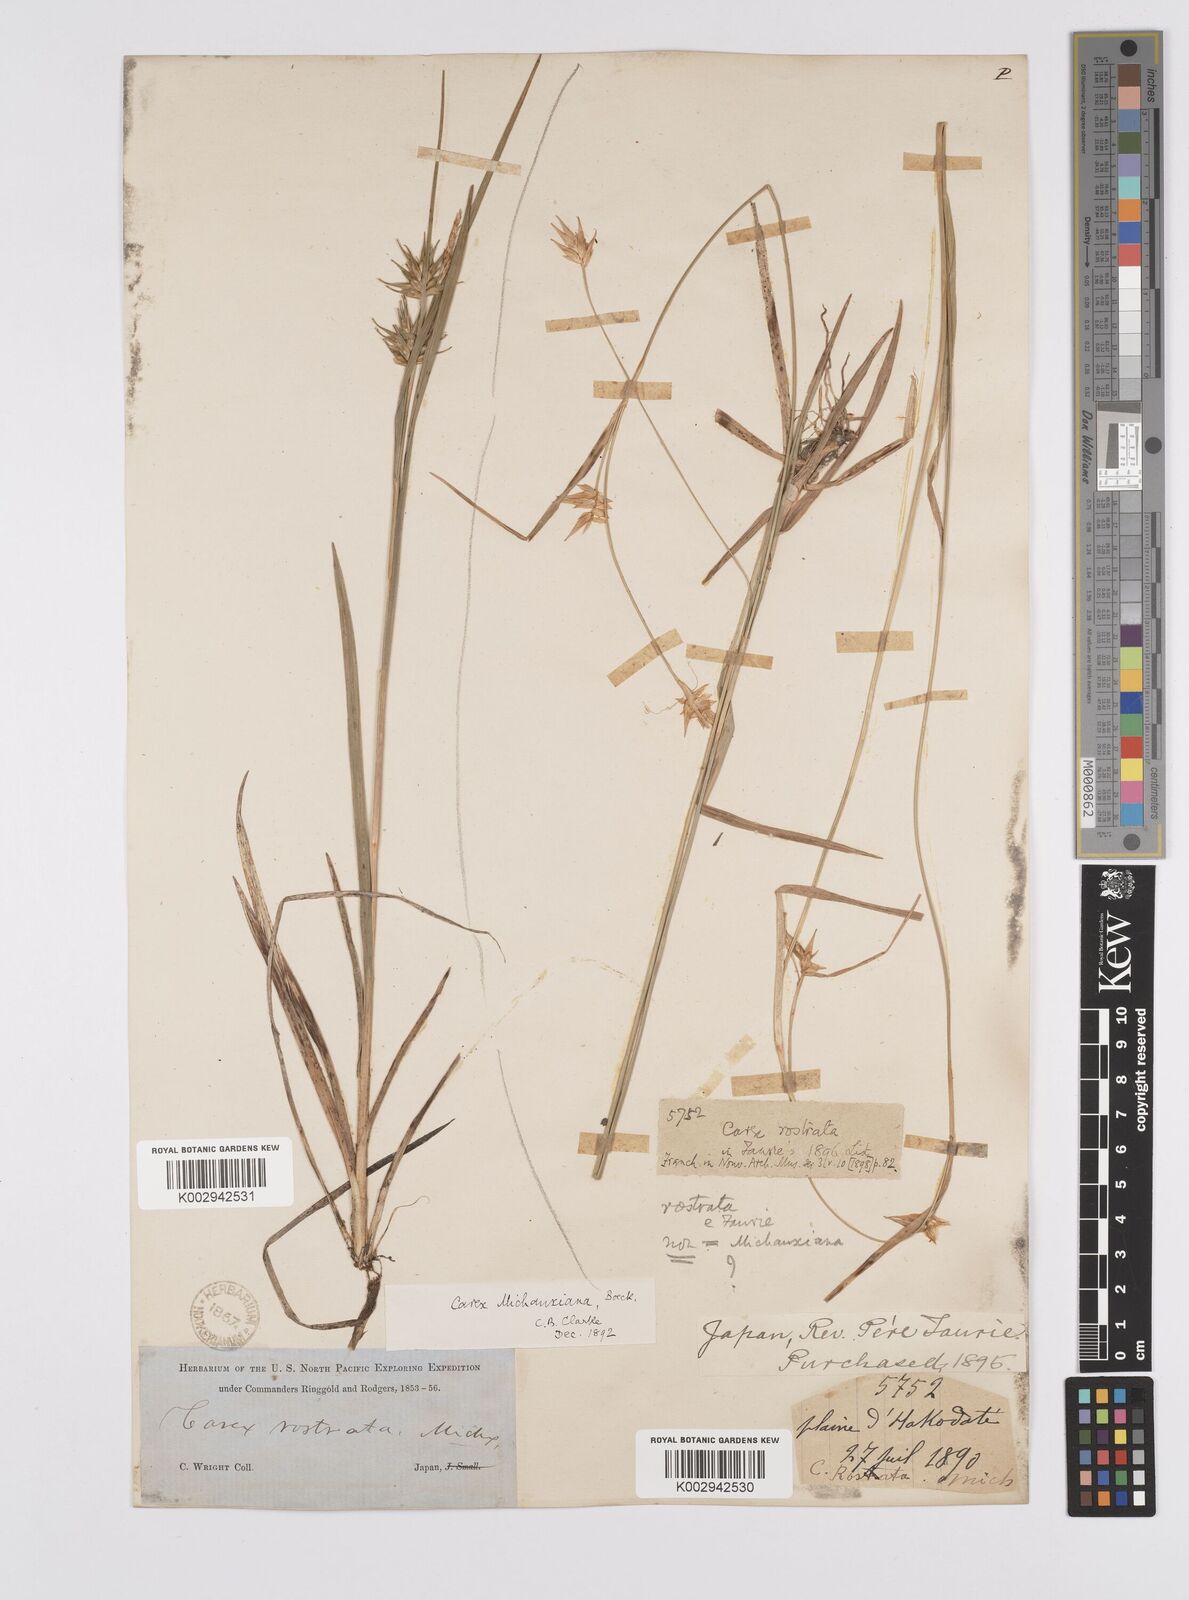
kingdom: Plantae
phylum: Tracheophyta
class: Liliopsida
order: Poales
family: Cyperaceae
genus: Carex
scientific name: Carex michauxiana
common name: Michaux's sedge
